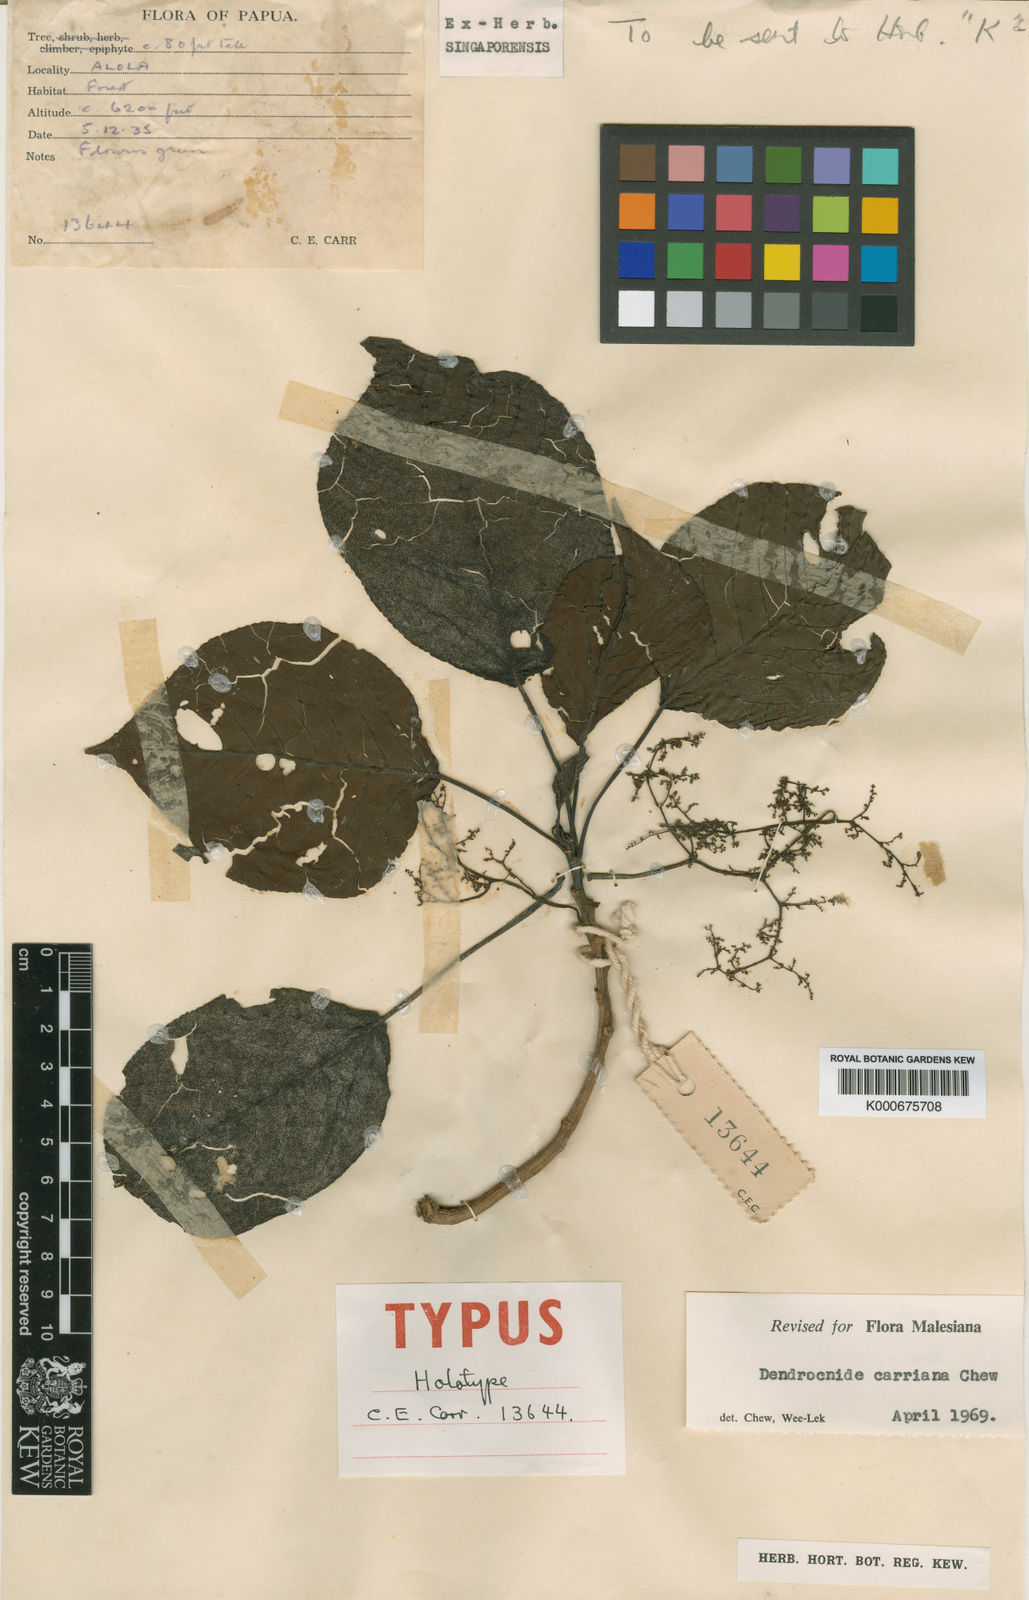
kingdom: Plantae
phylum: Tracheophyta
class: Magnoliopsida
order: Rosales
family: Urticaceae
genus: Dendrocnide
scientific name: Dendrocnide carriana
